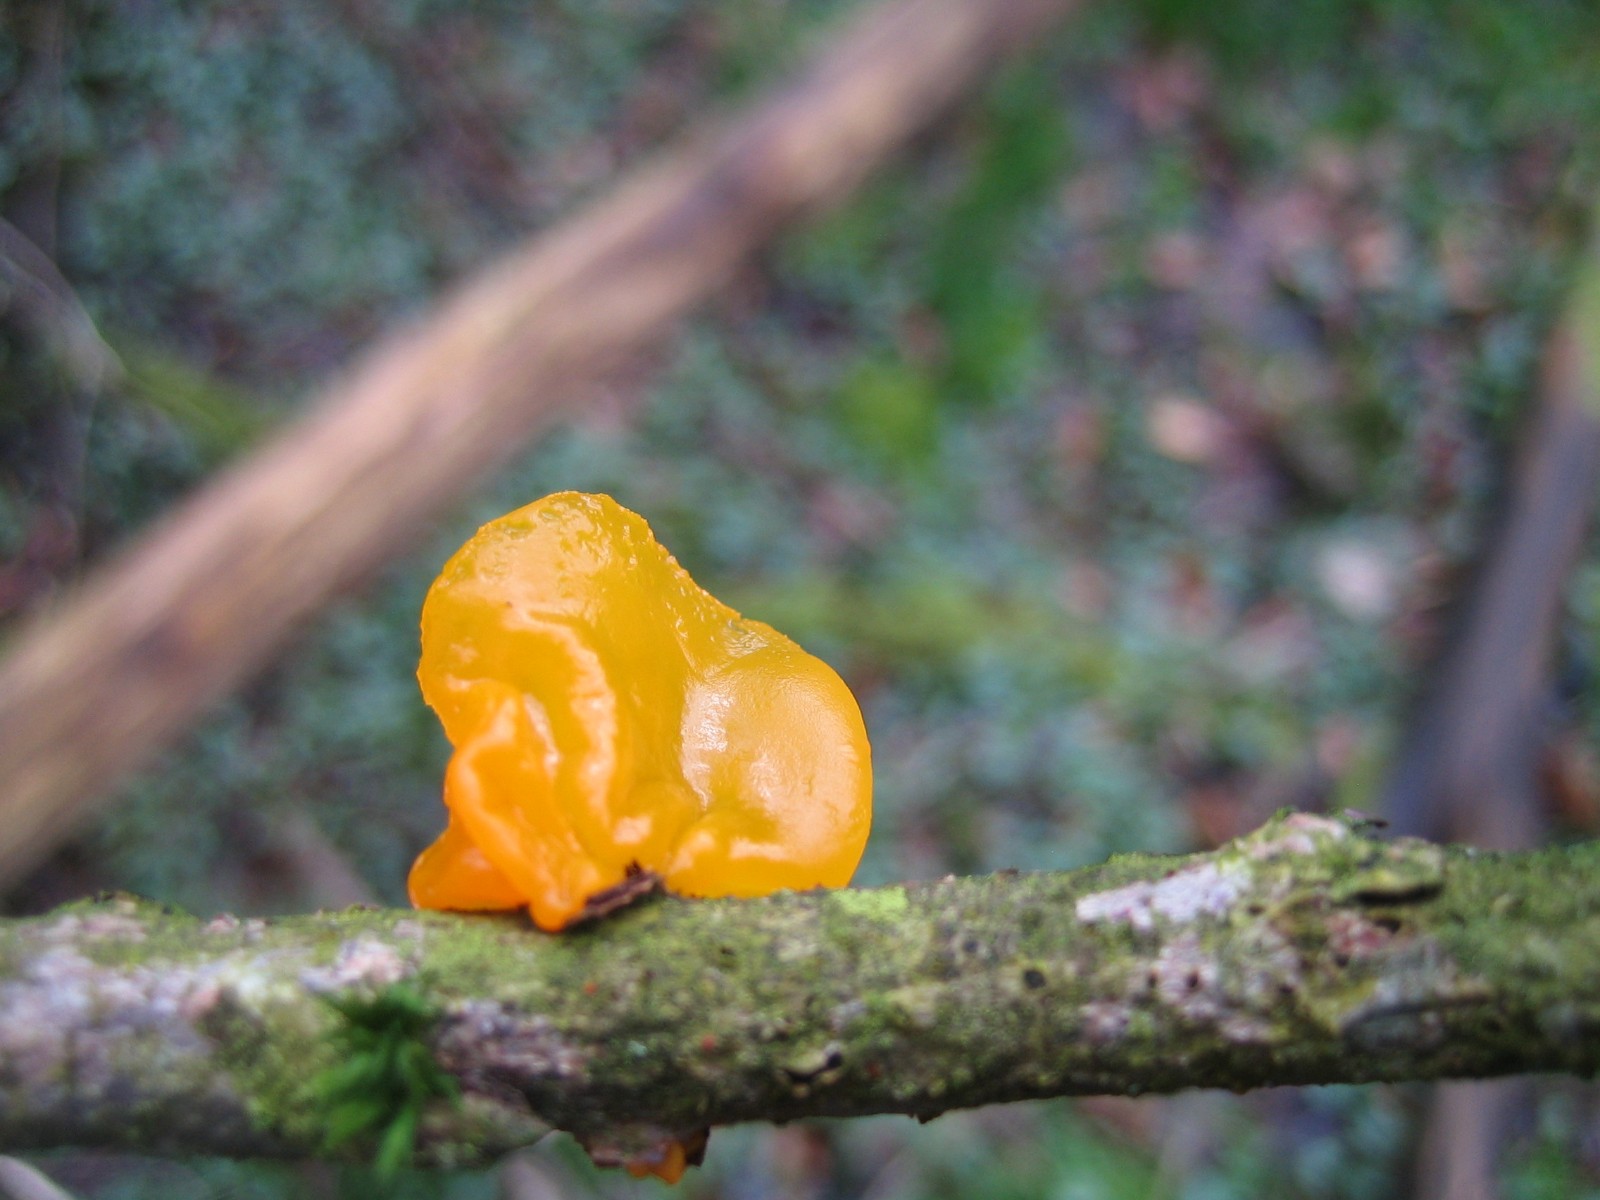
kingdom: Fungi
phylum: Basidiomycota
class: Tremellomycetes
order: Tremellales
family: Tremellaceae
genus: Tremella
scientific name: Tremella mesenterica
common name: gul bævresvamp
